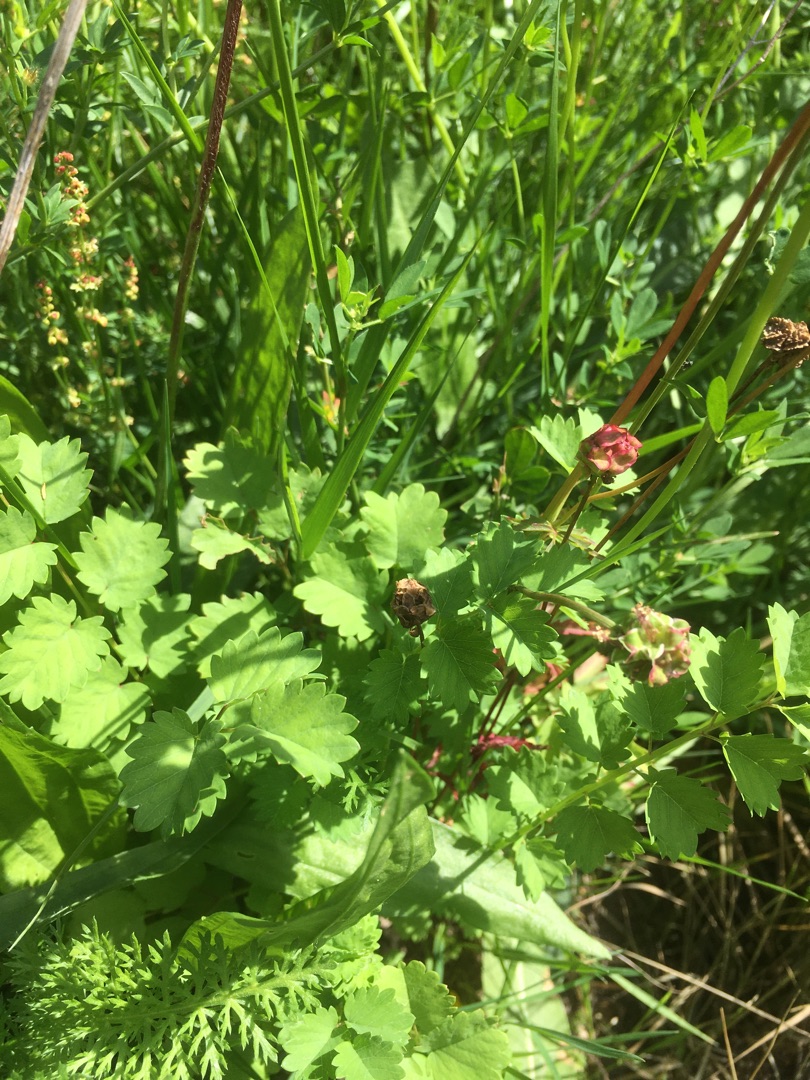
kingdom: Plantae
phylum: Tracheophyta
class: Magnoliopsida
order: Rosales
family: Rosaceae
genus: Poterium
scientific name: Poterium sanguisorba
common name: Bibernelle
